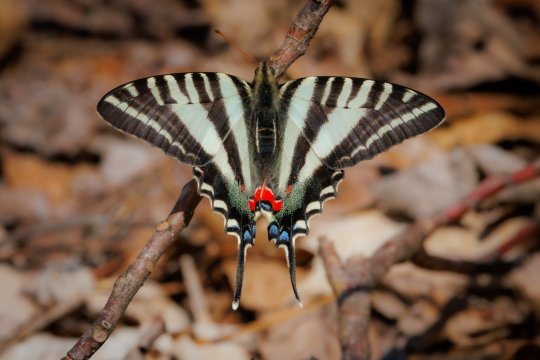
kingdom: Animalia
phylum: Arthropoda
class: Insecta
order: Lepidoptera
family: Papilionidae
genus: Protographium
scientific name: Protographium marcellus
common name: Zebra Swallowtail
